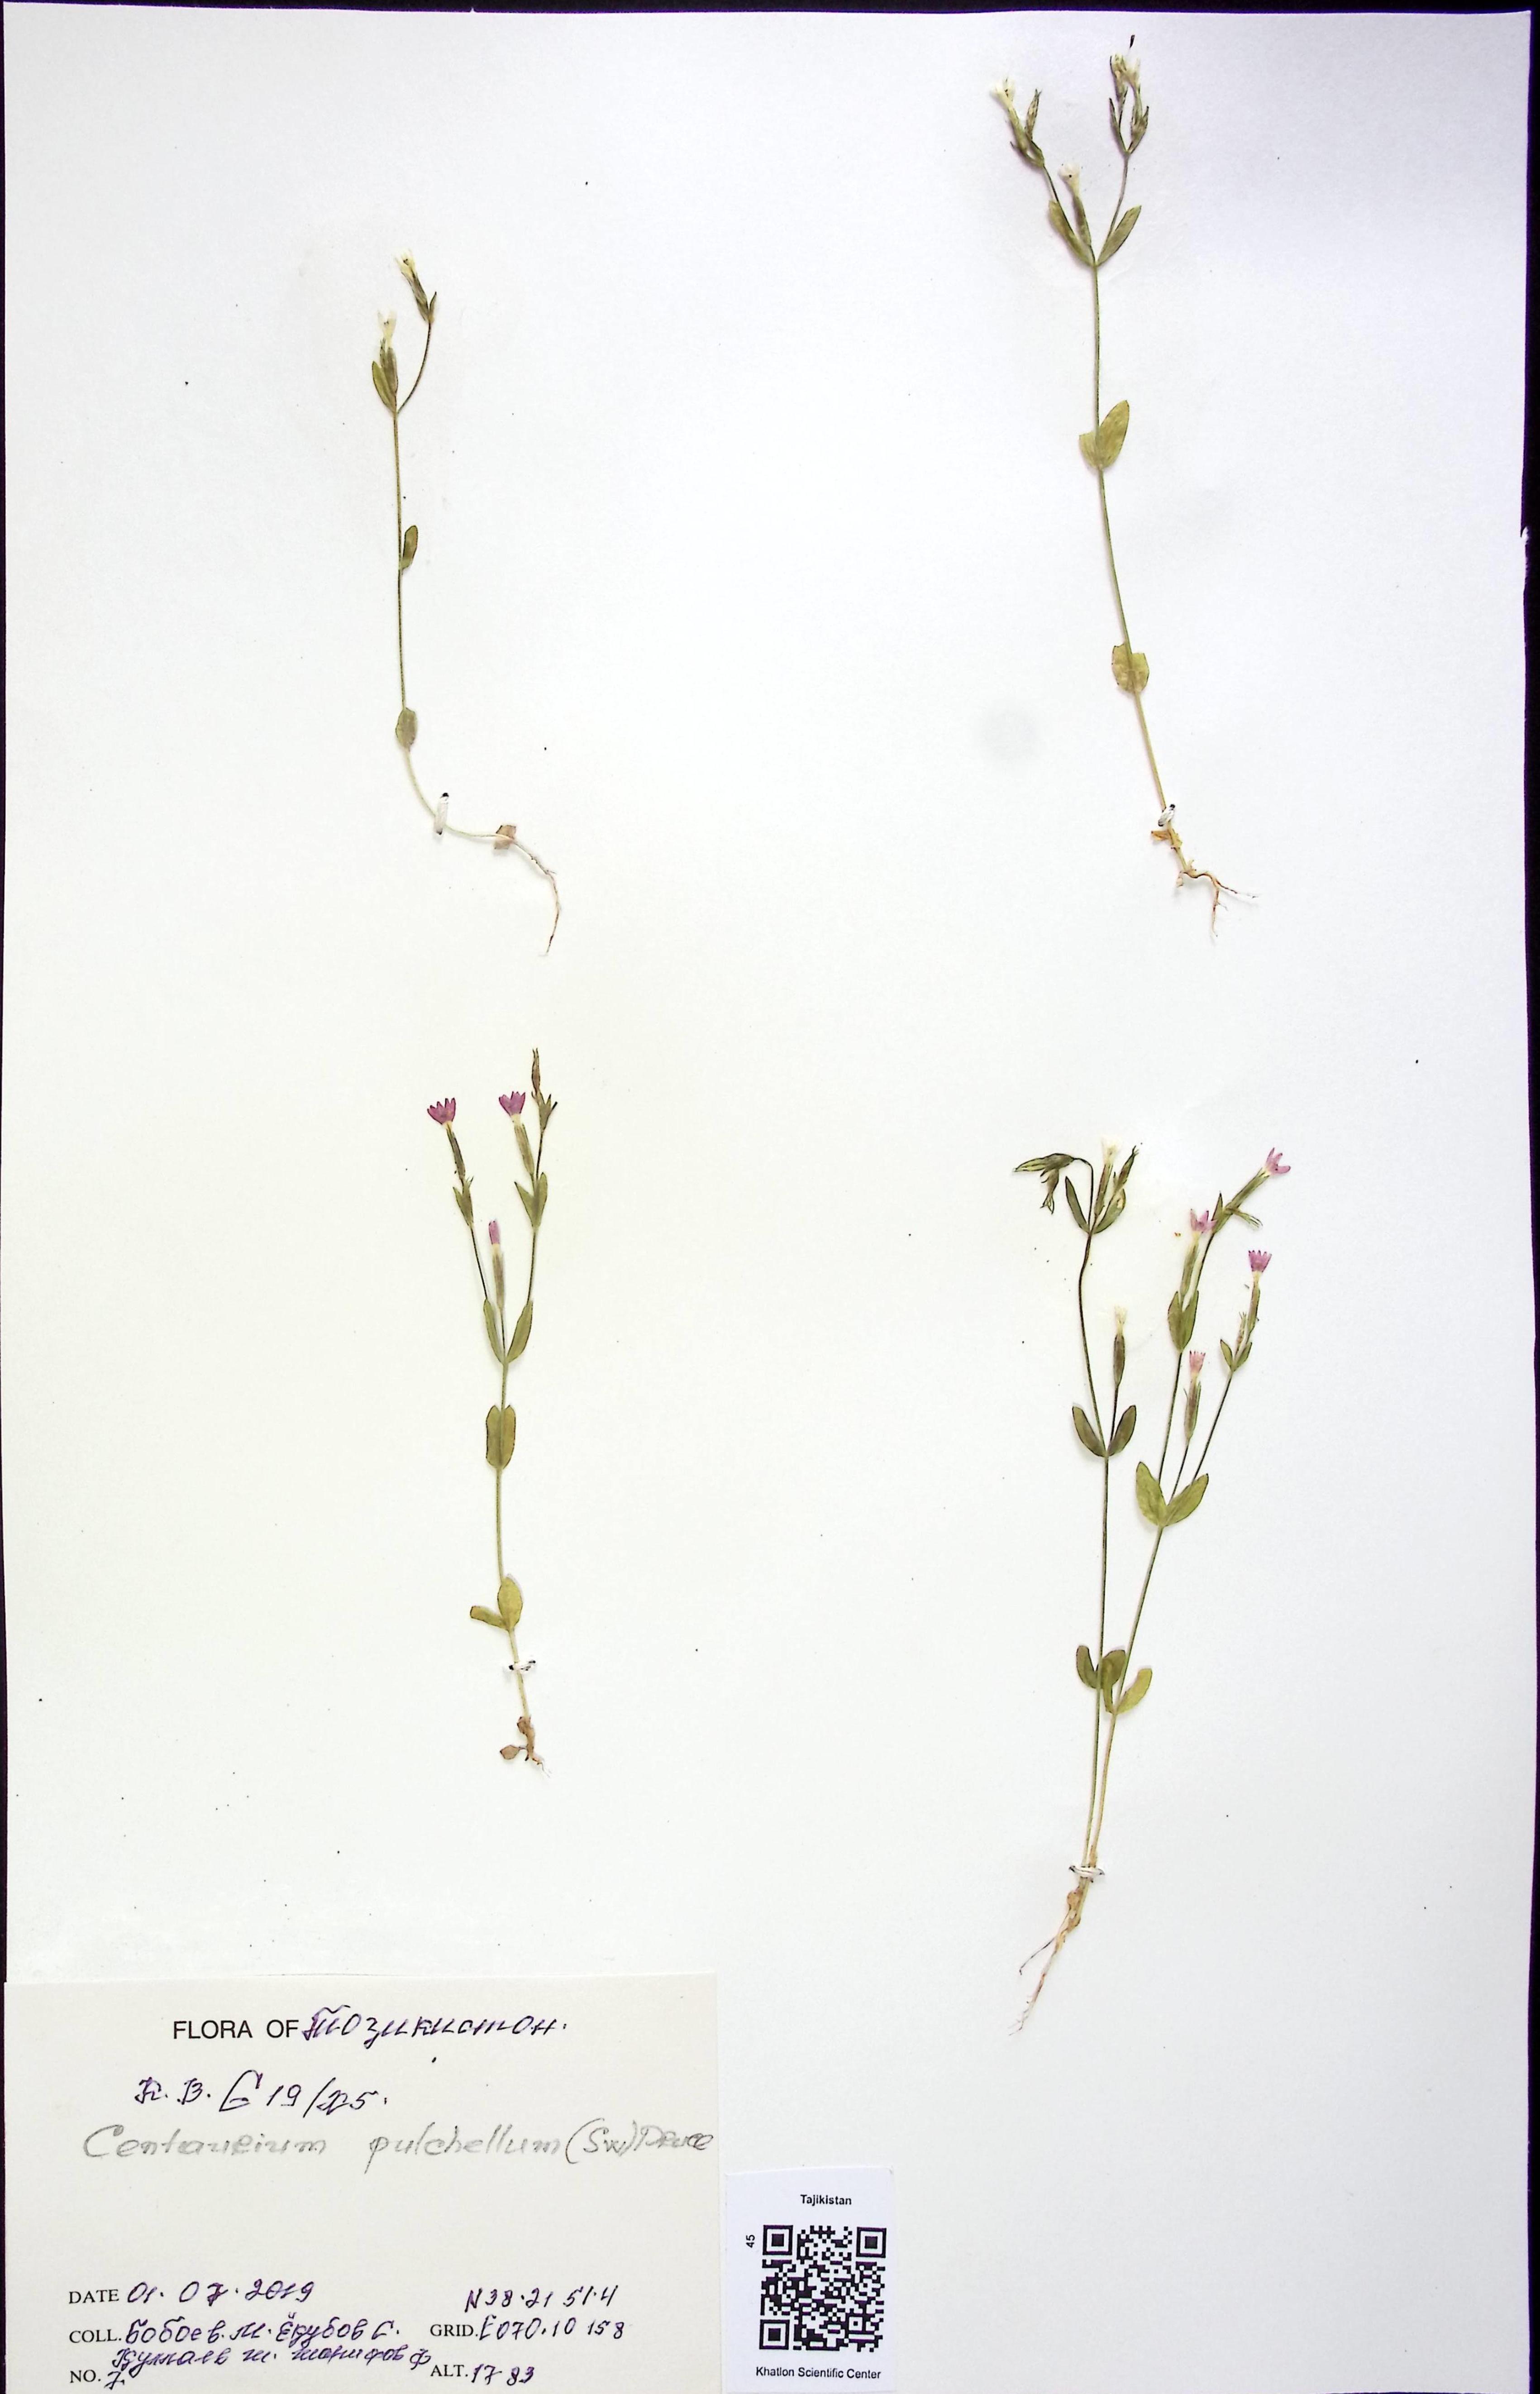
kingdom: Plantae
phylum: Tracheophyta
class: Magnoliopsida
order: Gentianales
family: Gentianaceae
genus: Centaurium
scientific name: Centaurium pulchellum
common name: Lesser centaury
